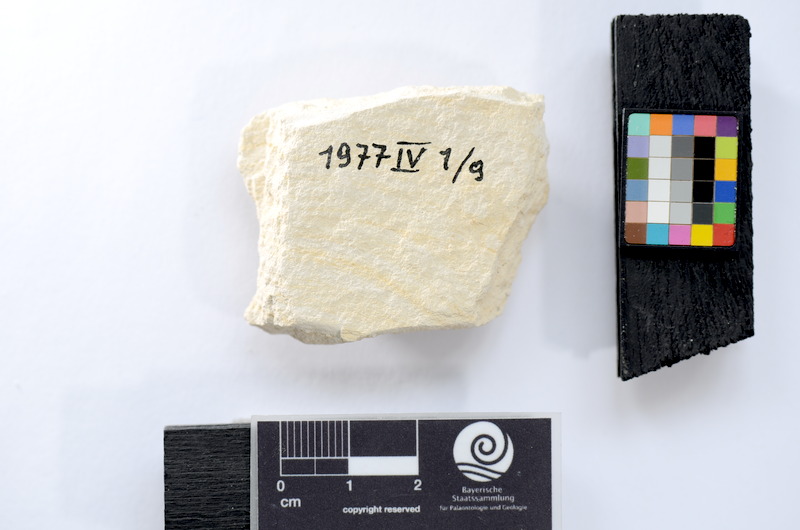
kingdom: Animalia
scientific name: Animalia
